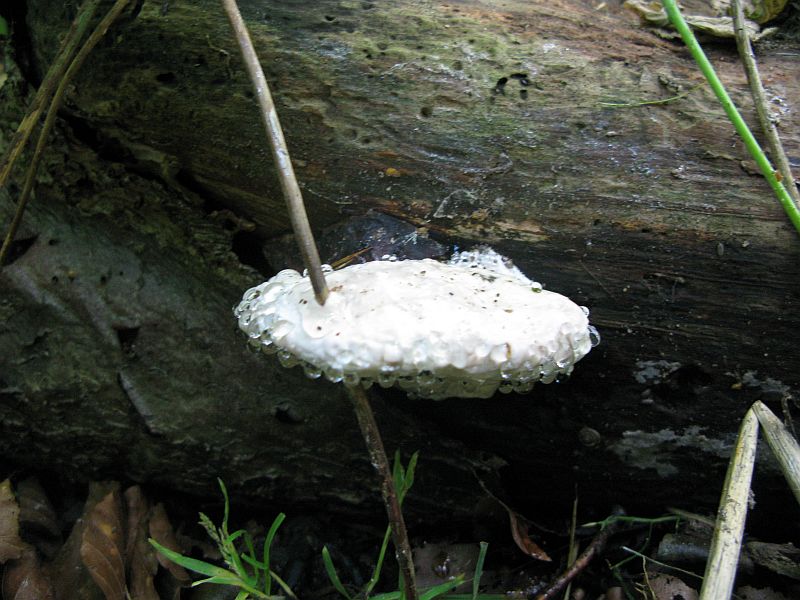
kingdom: Fungi
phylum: Basidiomycota
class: Agaricomycetes
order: Polyporales
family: Fomitopsidaceae
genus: Fomitopsis
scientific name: Fomitopsis pinicola
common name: randbæltet hovporesvamp
